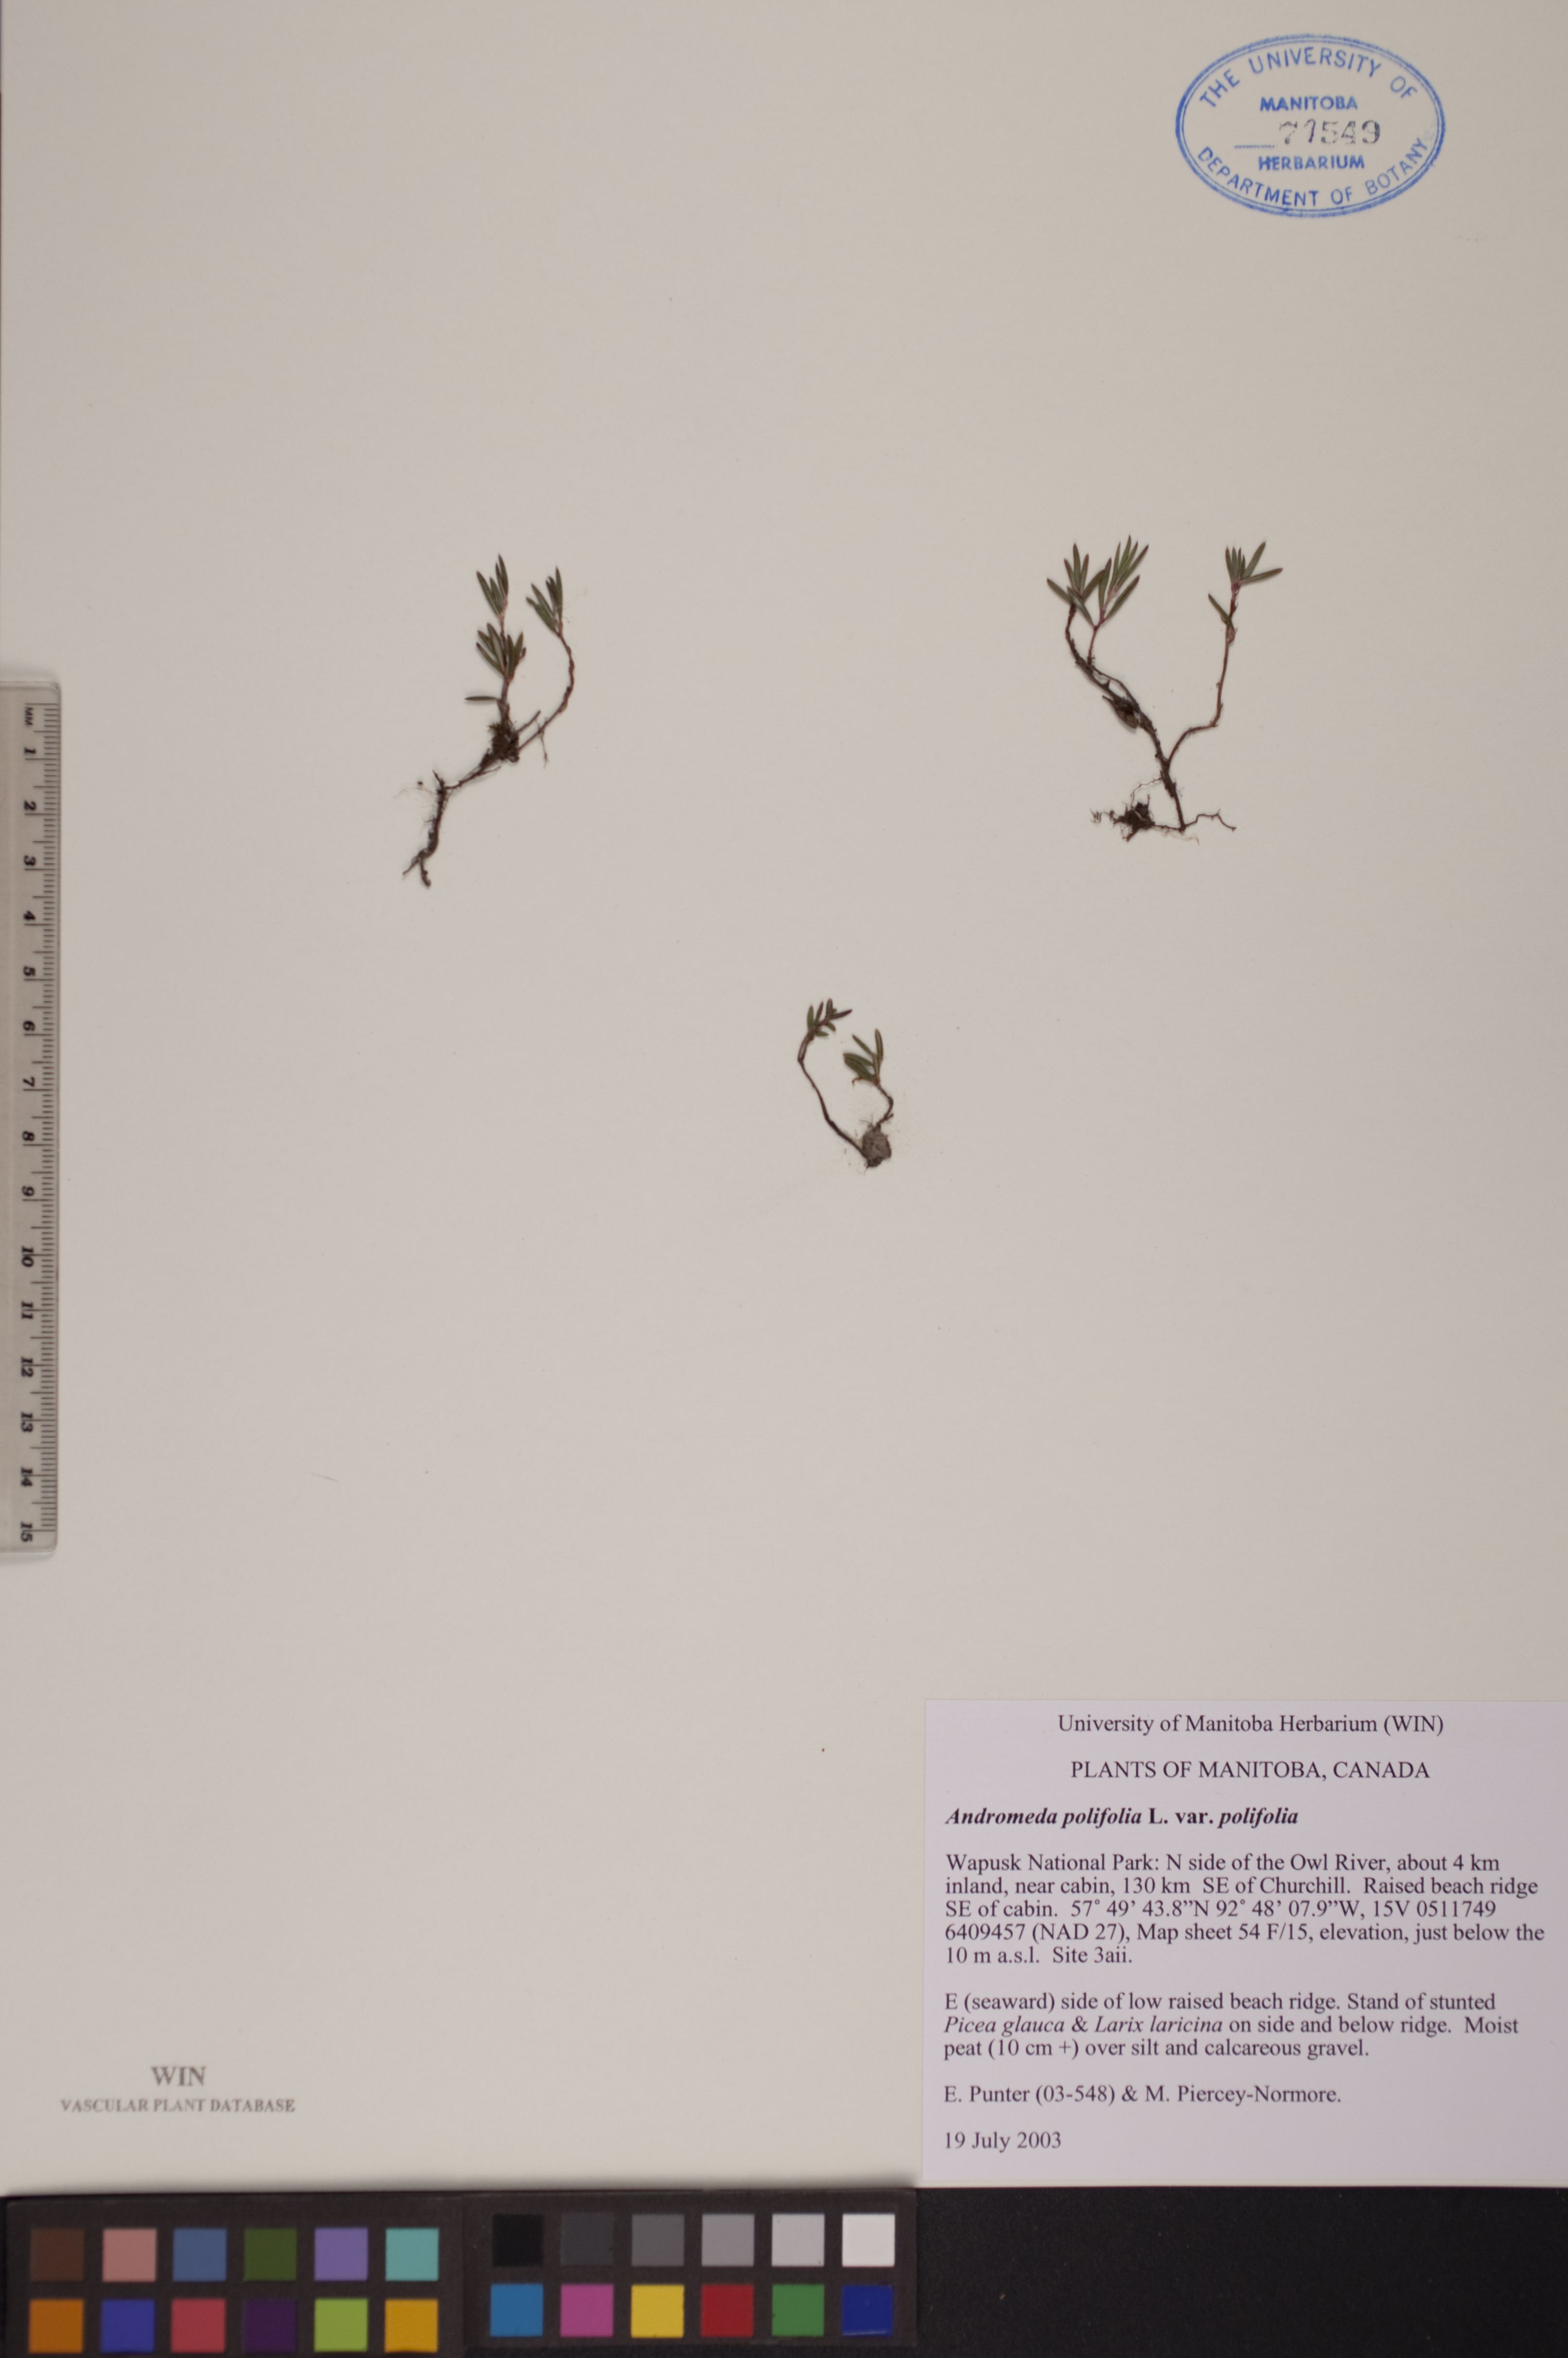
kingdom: Plantae
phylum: Tracheophyta
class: Magnoliopsida
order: Ericales
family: Ericaceae
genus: Andromeda
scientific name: Andromeda polifolia
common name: Bog-rosemary
